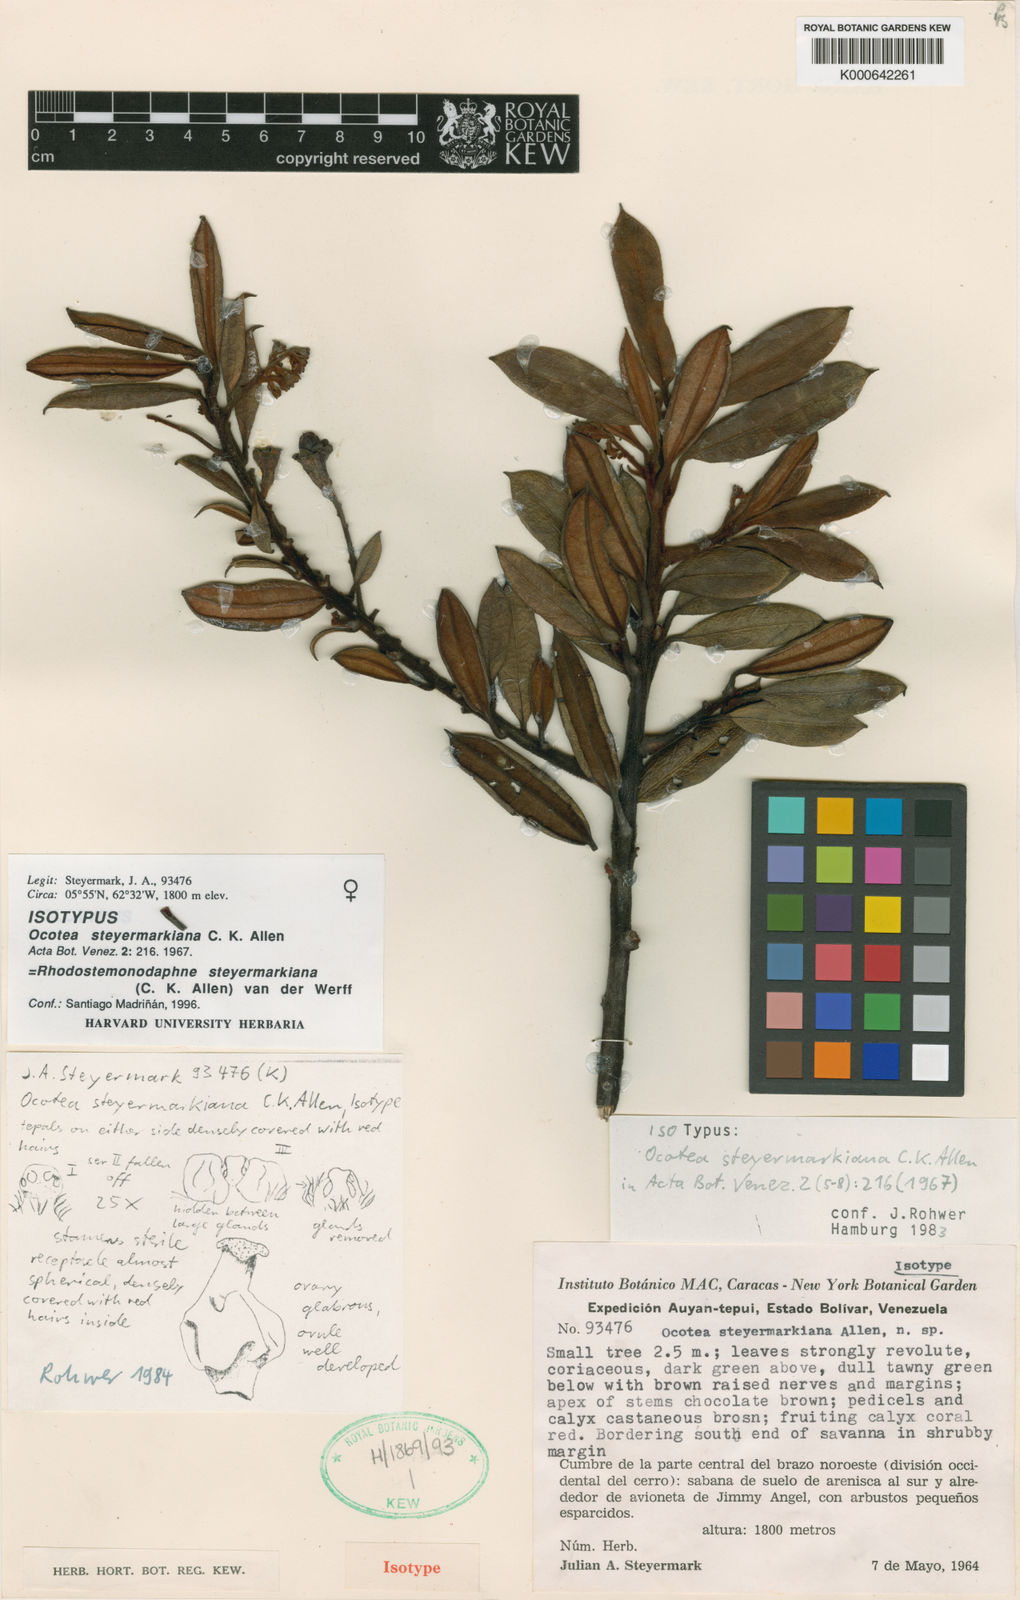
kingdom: Plantae
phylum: Tracheophyta
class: Magnoliopsida
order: Laurales
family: Lauraceae
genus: Rhodostemonodaphne
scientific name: Rhodostemonodaphne steyermarkiana
